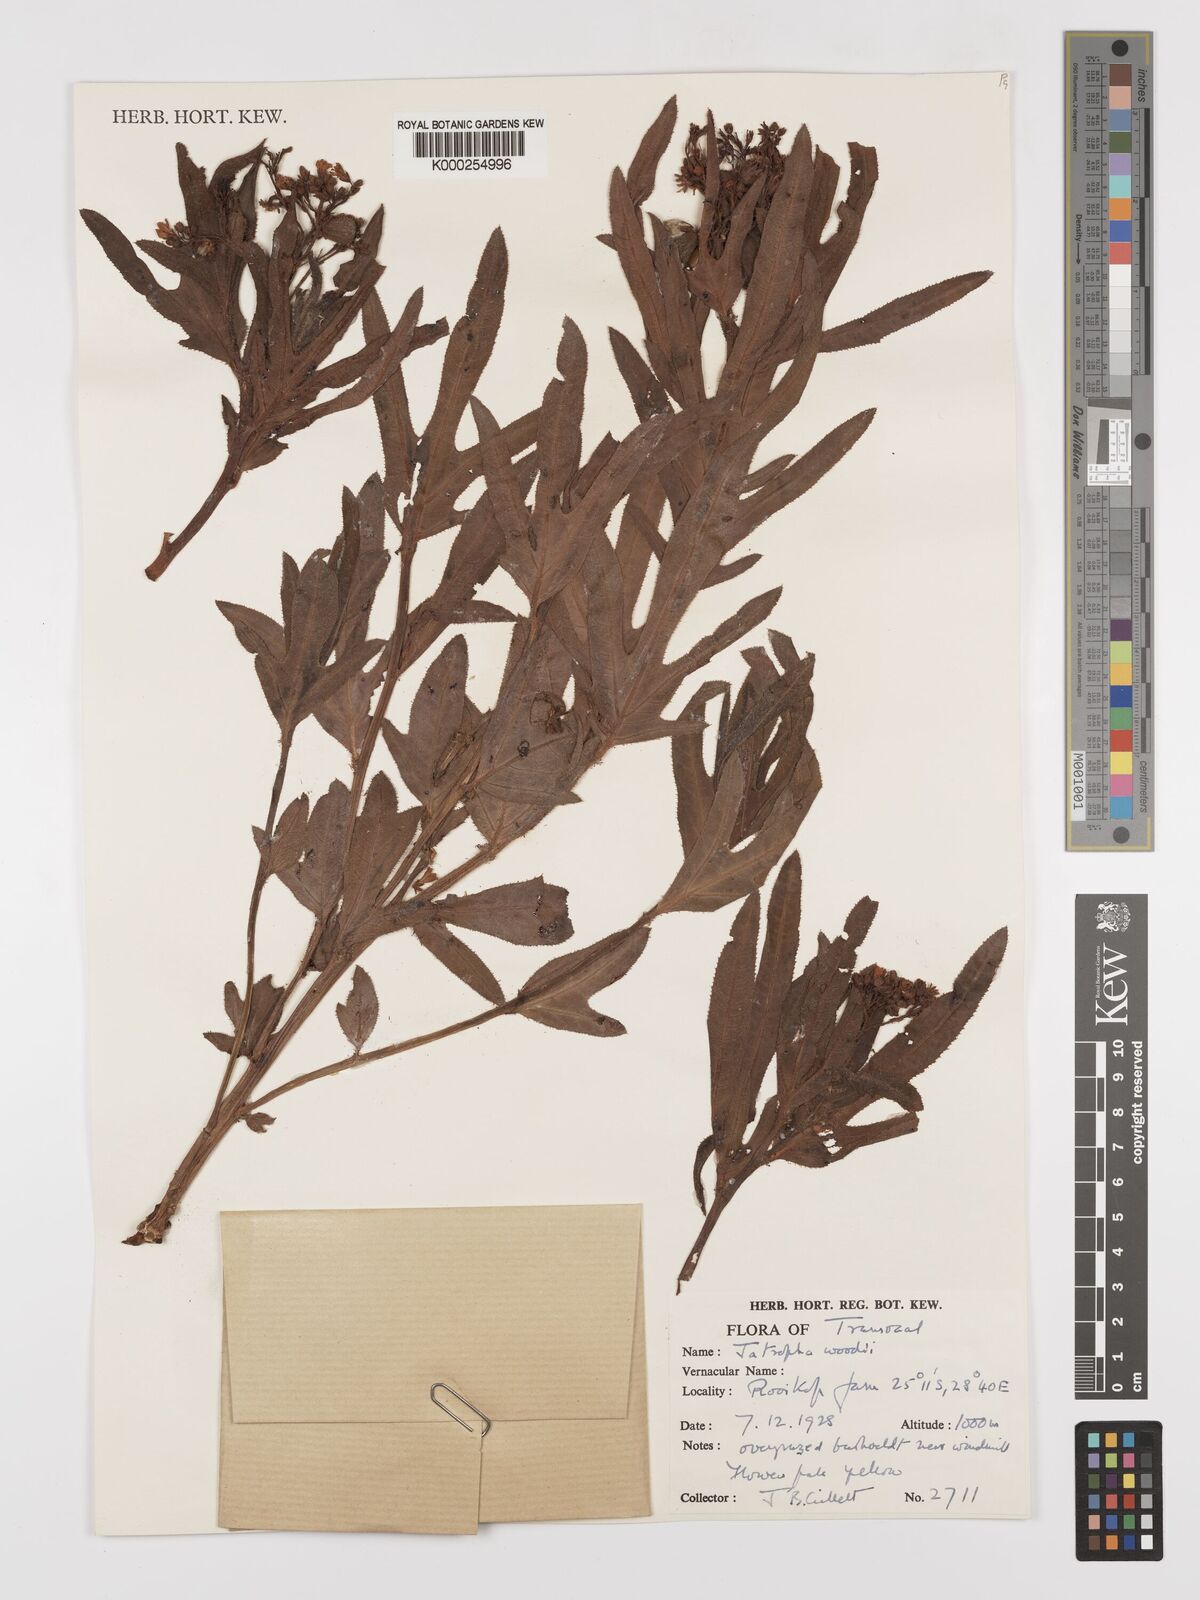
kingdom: Plantae
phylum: Tracheophyta
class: Magnoliopsida
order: Malpighiales
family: Euphorbiaceae
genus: Jatropha
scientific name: Jatropha woodii
